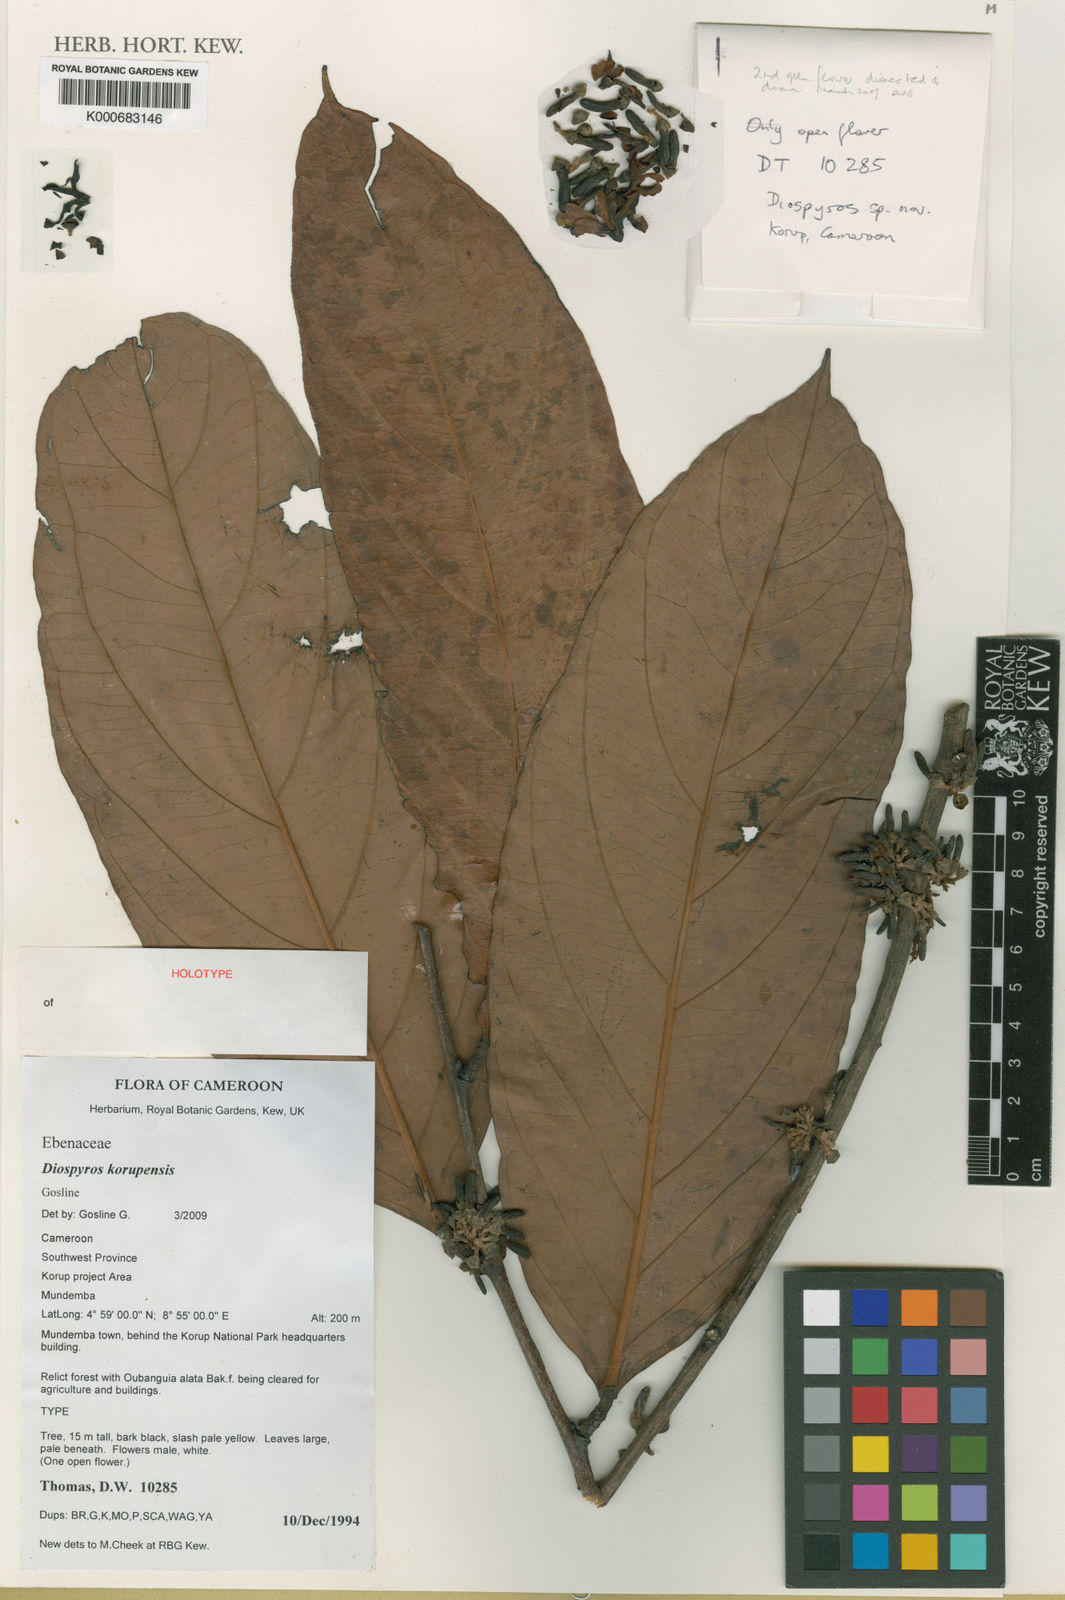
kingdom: Plantae
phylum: Tracheophyta
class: Magnoliopsida
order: Ericales
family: Ebenaceae
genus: Diospyros
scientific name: Diospyros korupensis
